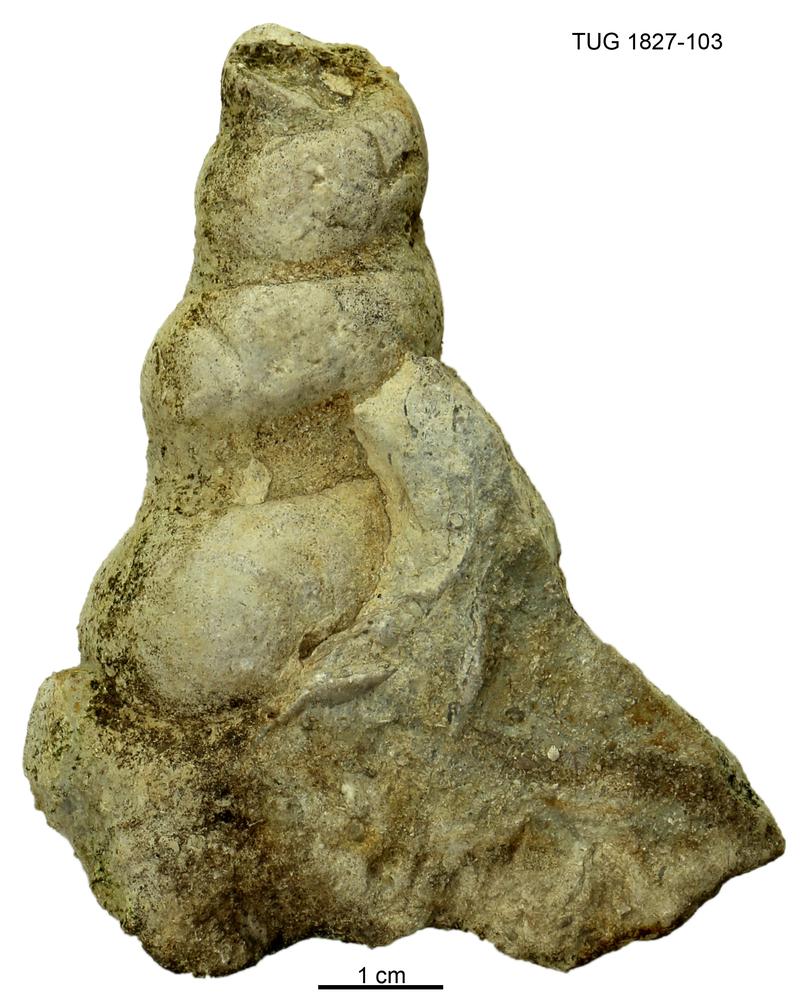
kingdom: Animalia
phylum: Mollusca
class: Gastropoda
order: Pleurotomariida
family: Murchisoniidae
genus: Hormotoma
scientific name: Hormotoma
